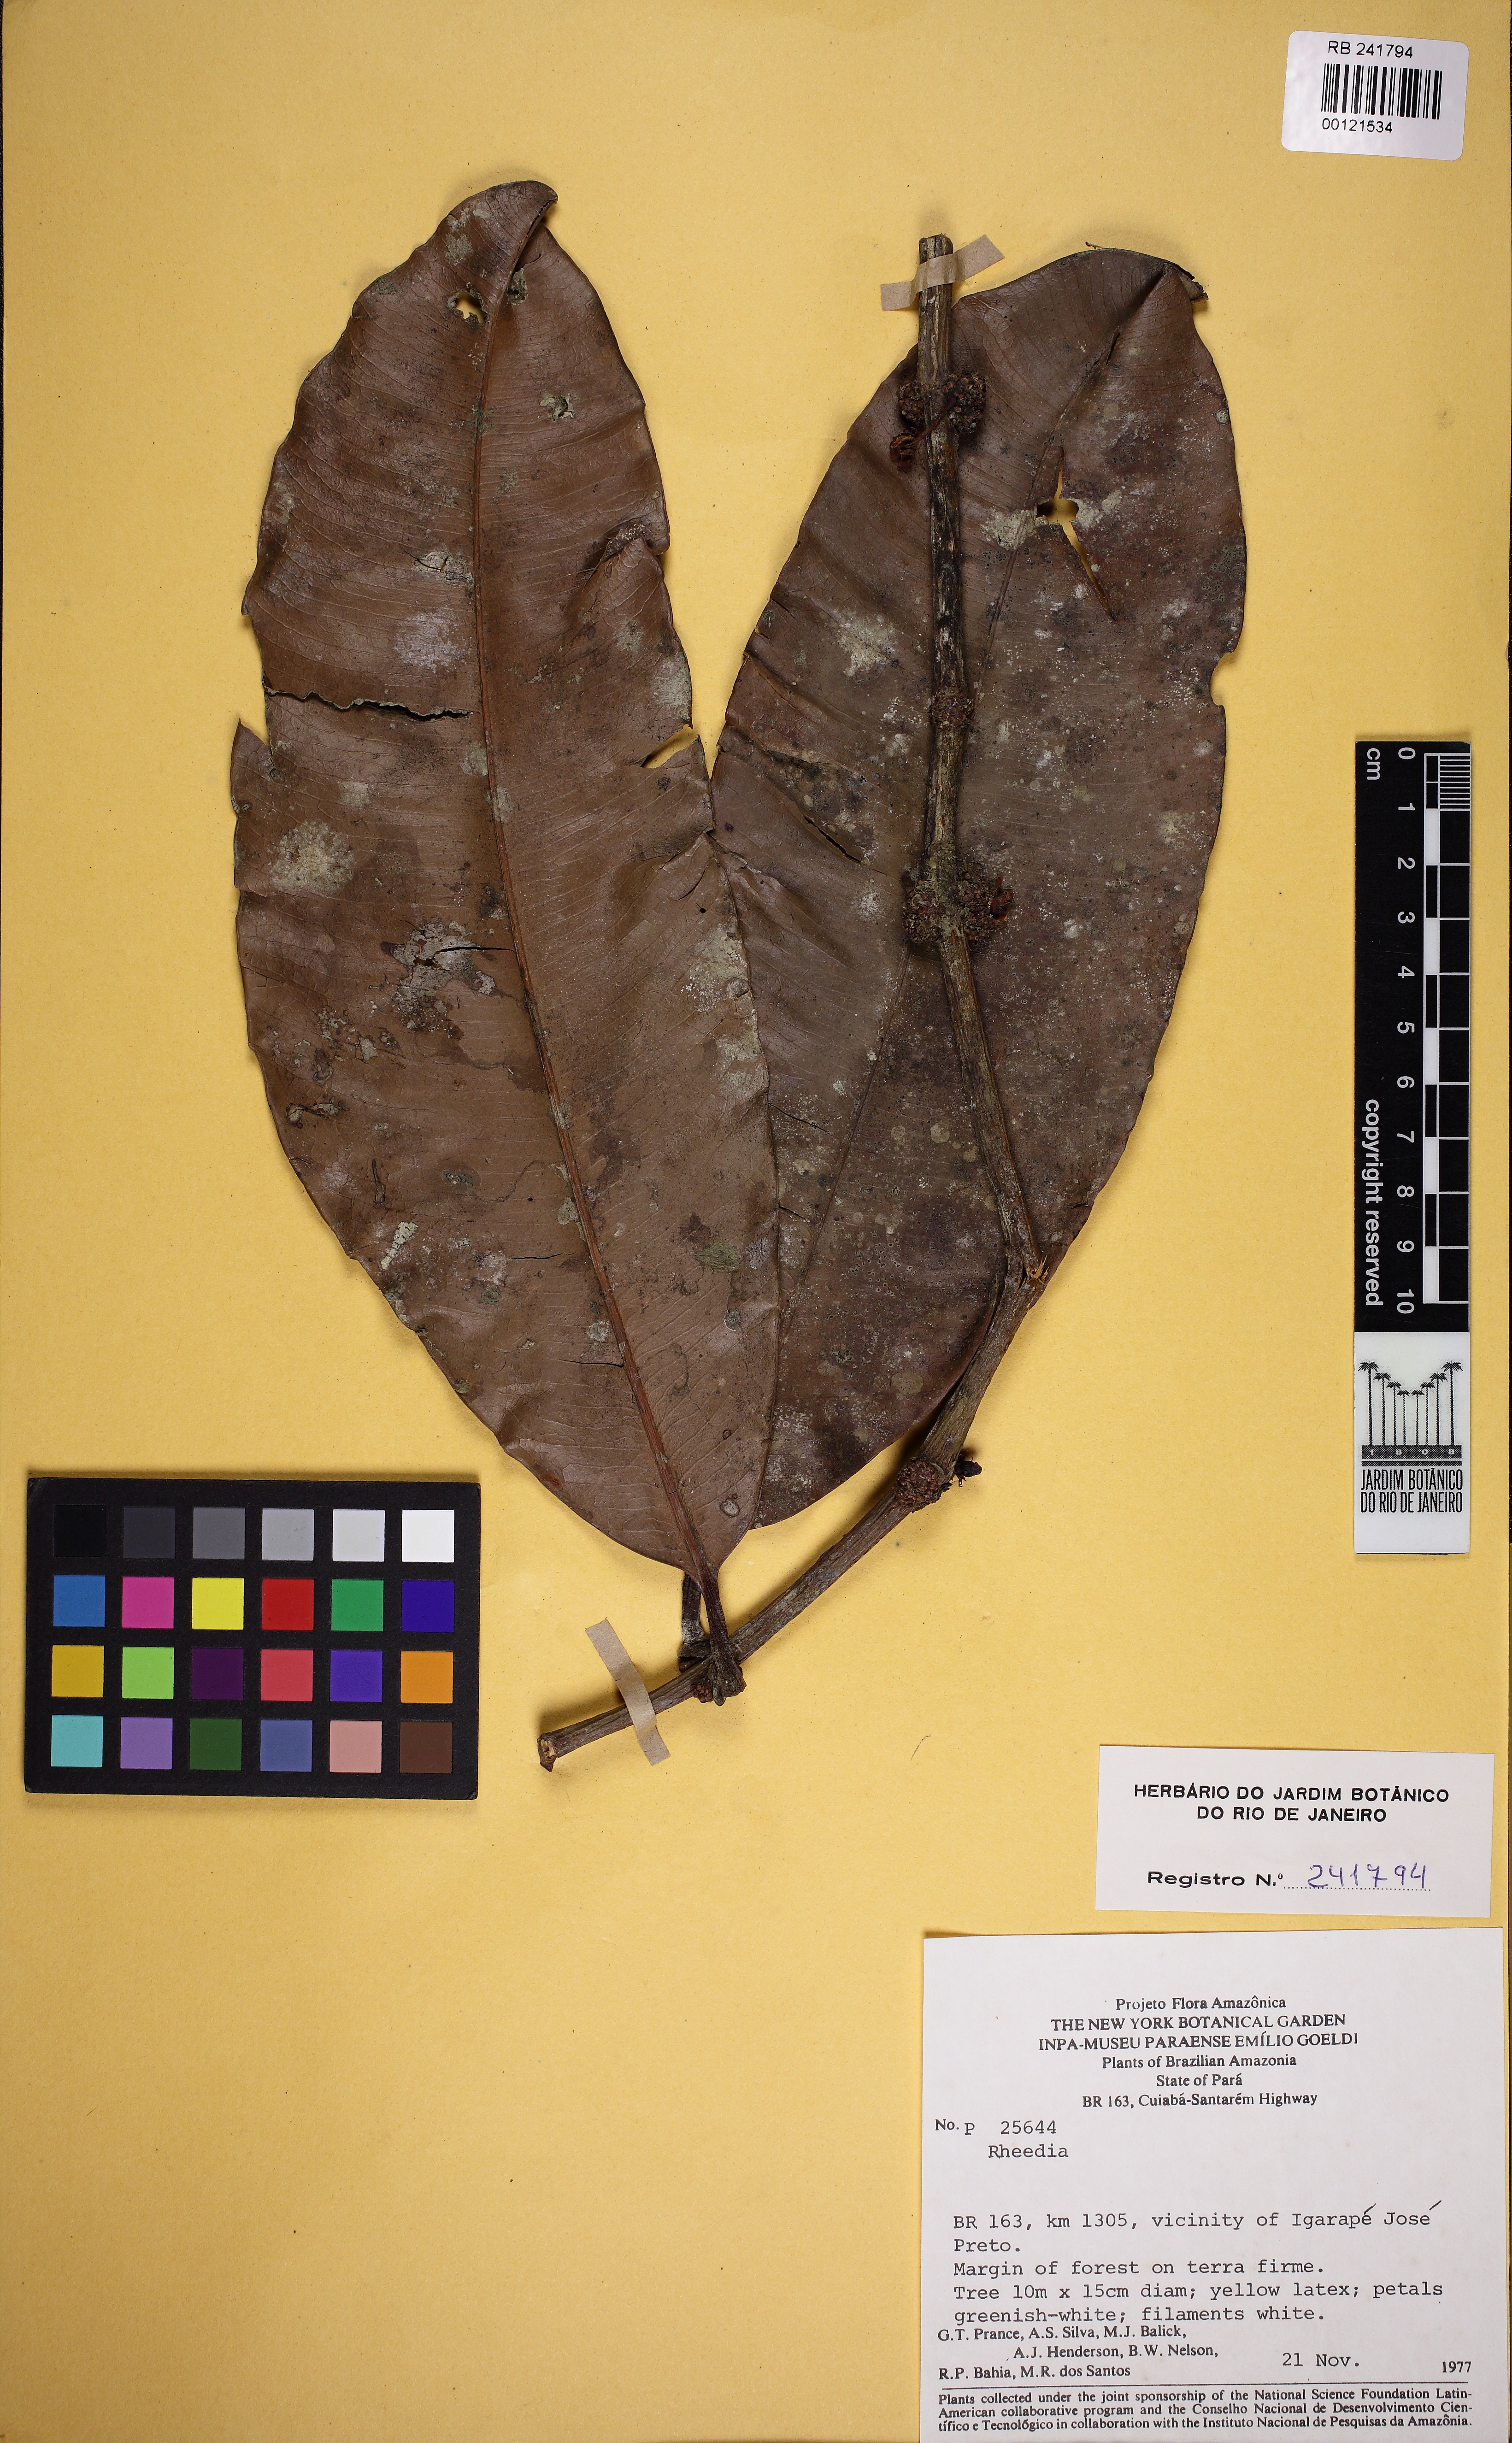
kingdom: Plantae
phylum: Tracheophyta
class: Magnoliopsida
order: Malpighiales
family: Clusiaceae
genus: Garcinia
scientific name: Garcinia macrophylla
